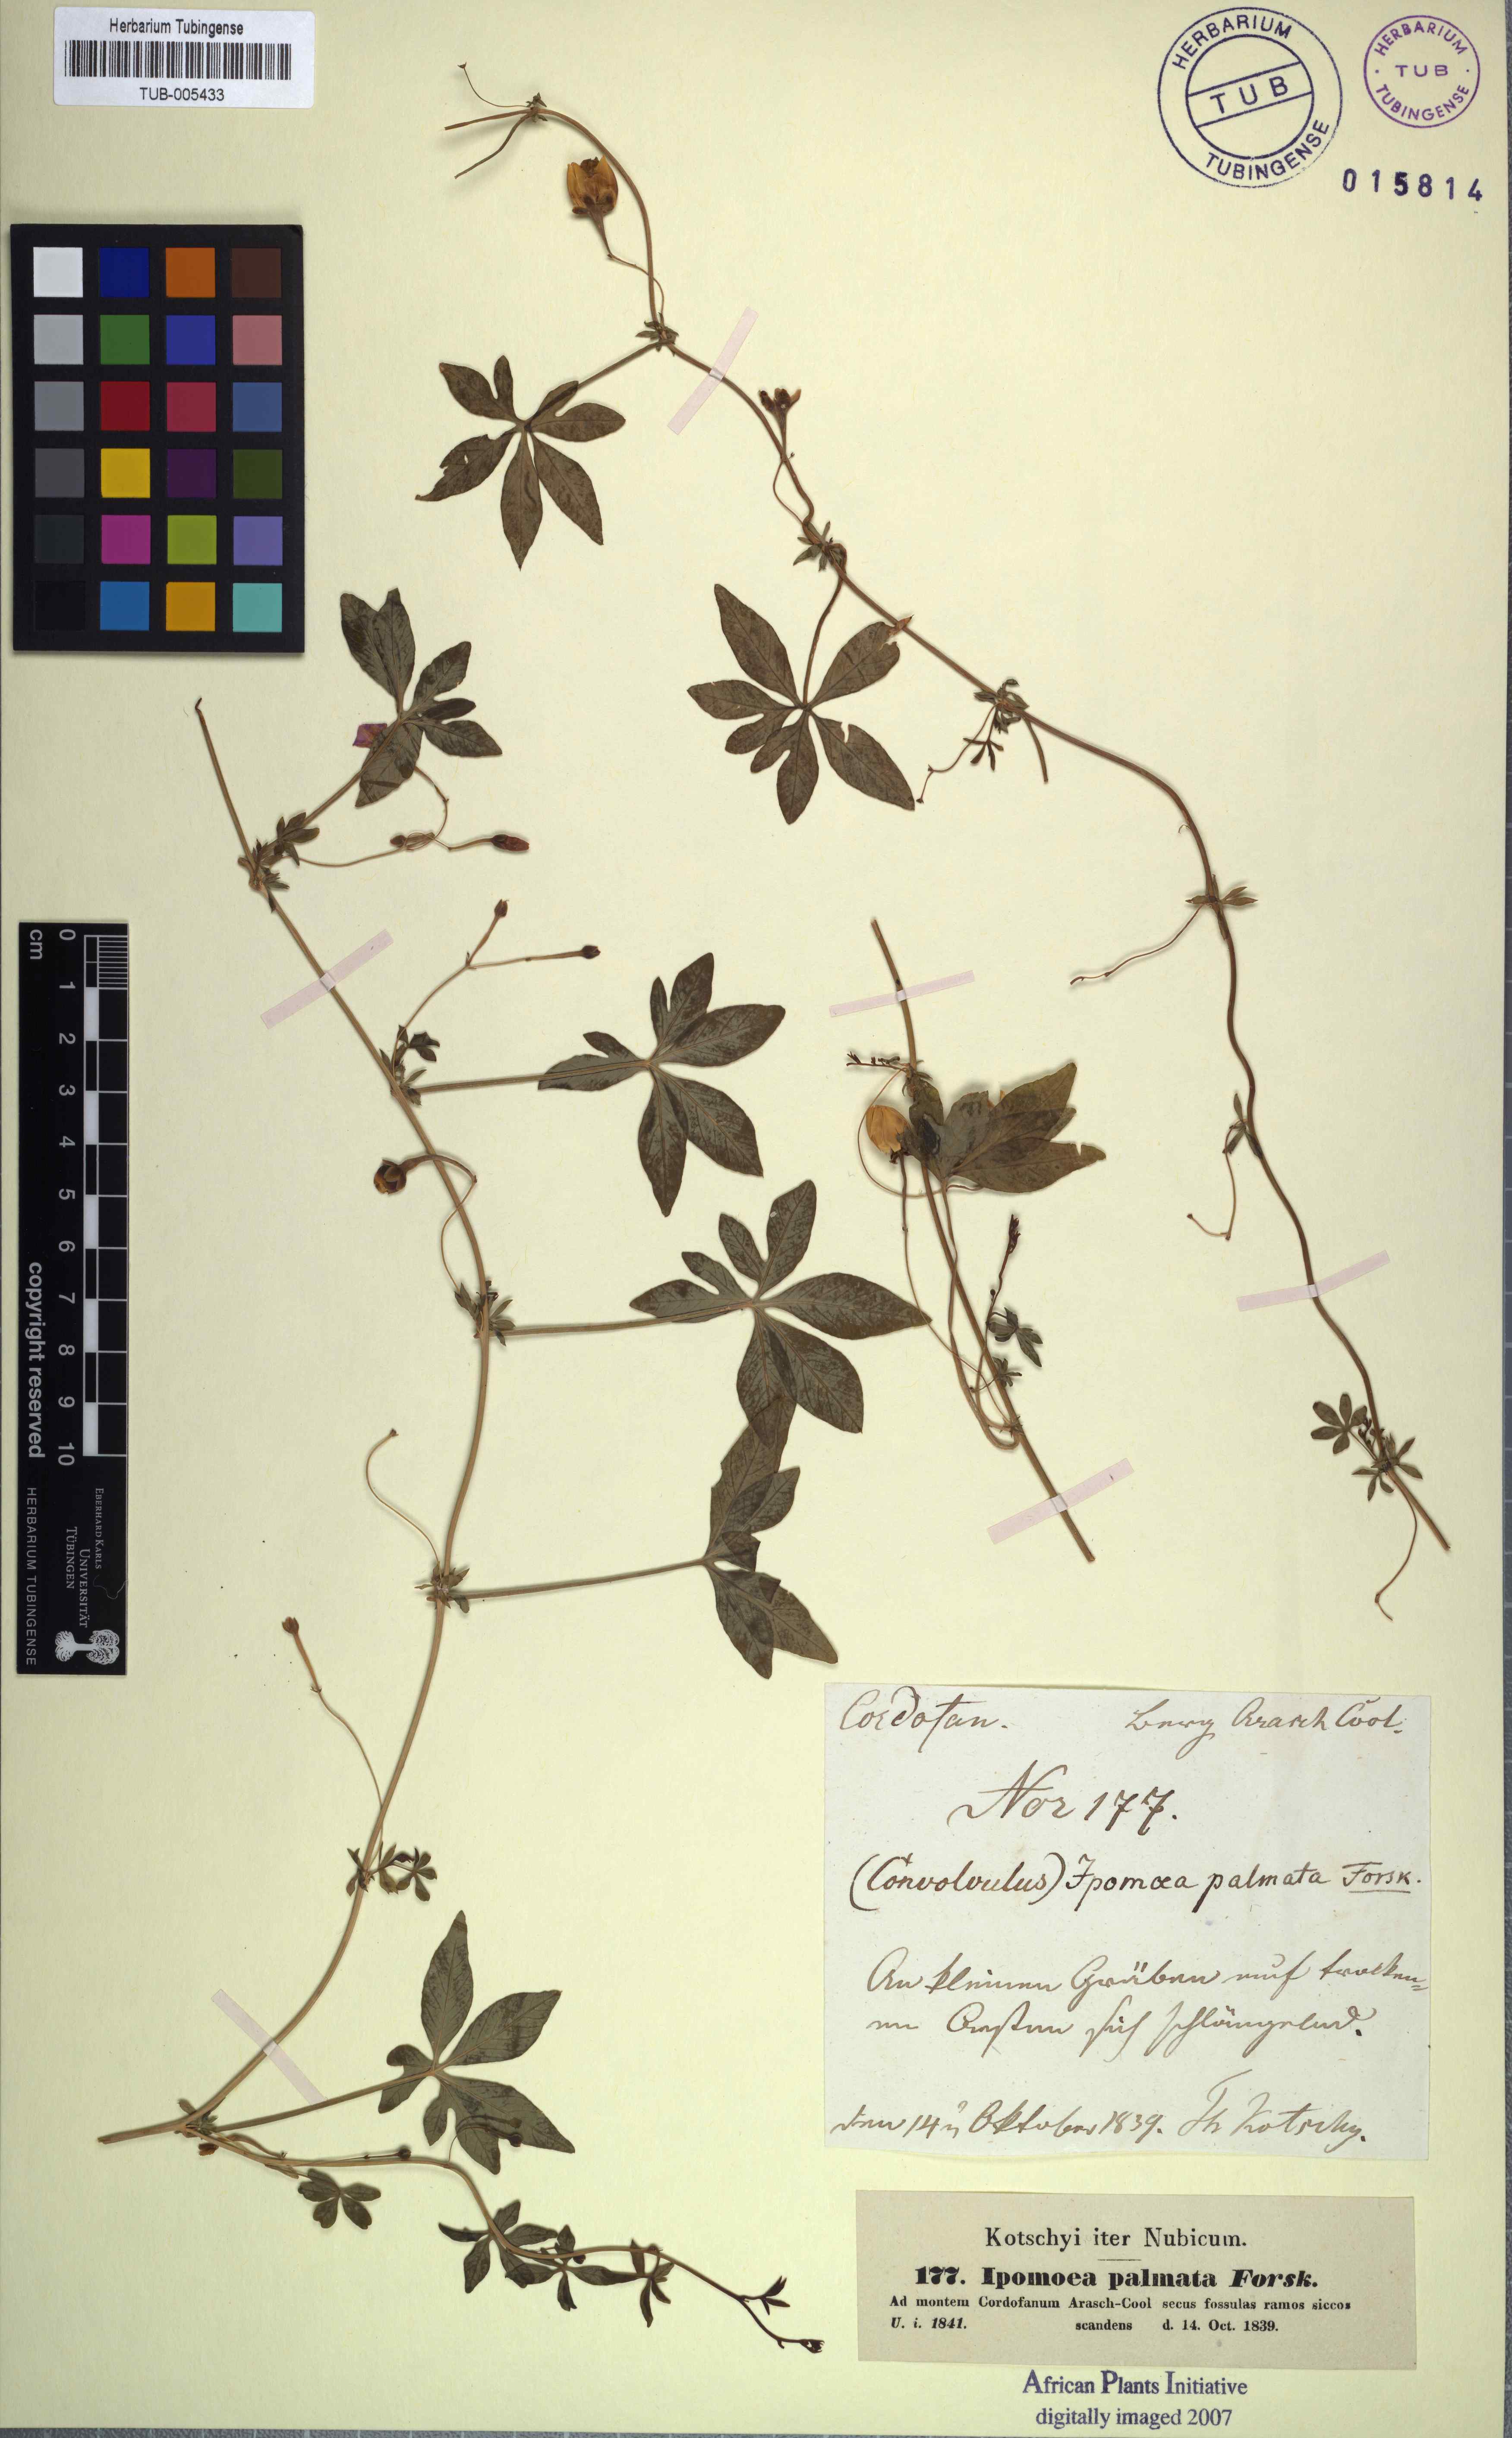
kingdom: Plantae
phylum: Tracheophyta
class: Magnoliopsida
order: Solanales
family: Convolvulaceae
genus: Ipomoea
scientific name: Ipomoea cairica
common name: Mile a minute vine
